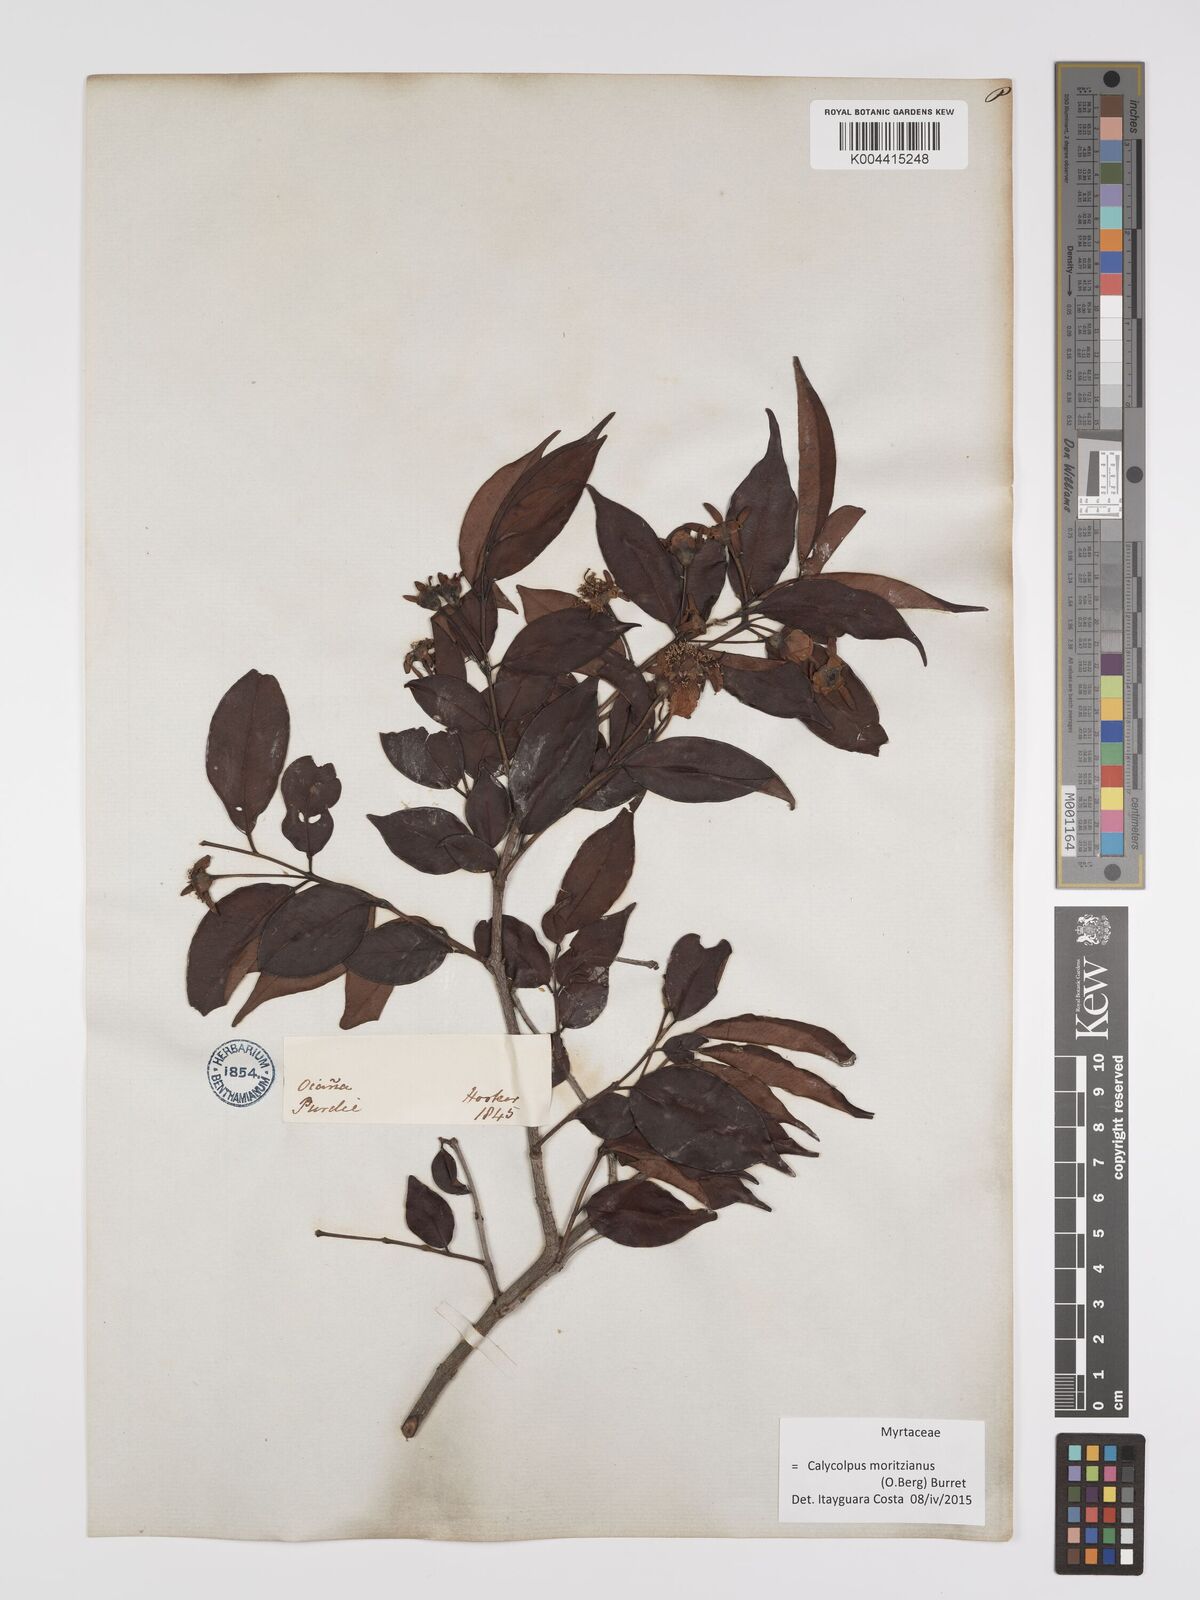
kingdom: Plantae
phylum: Tracheophyta
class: Magnoliopsida
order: Myrtales
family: Myrtaceae
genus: Calycolpus
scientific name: Calycolpus moritzianus
